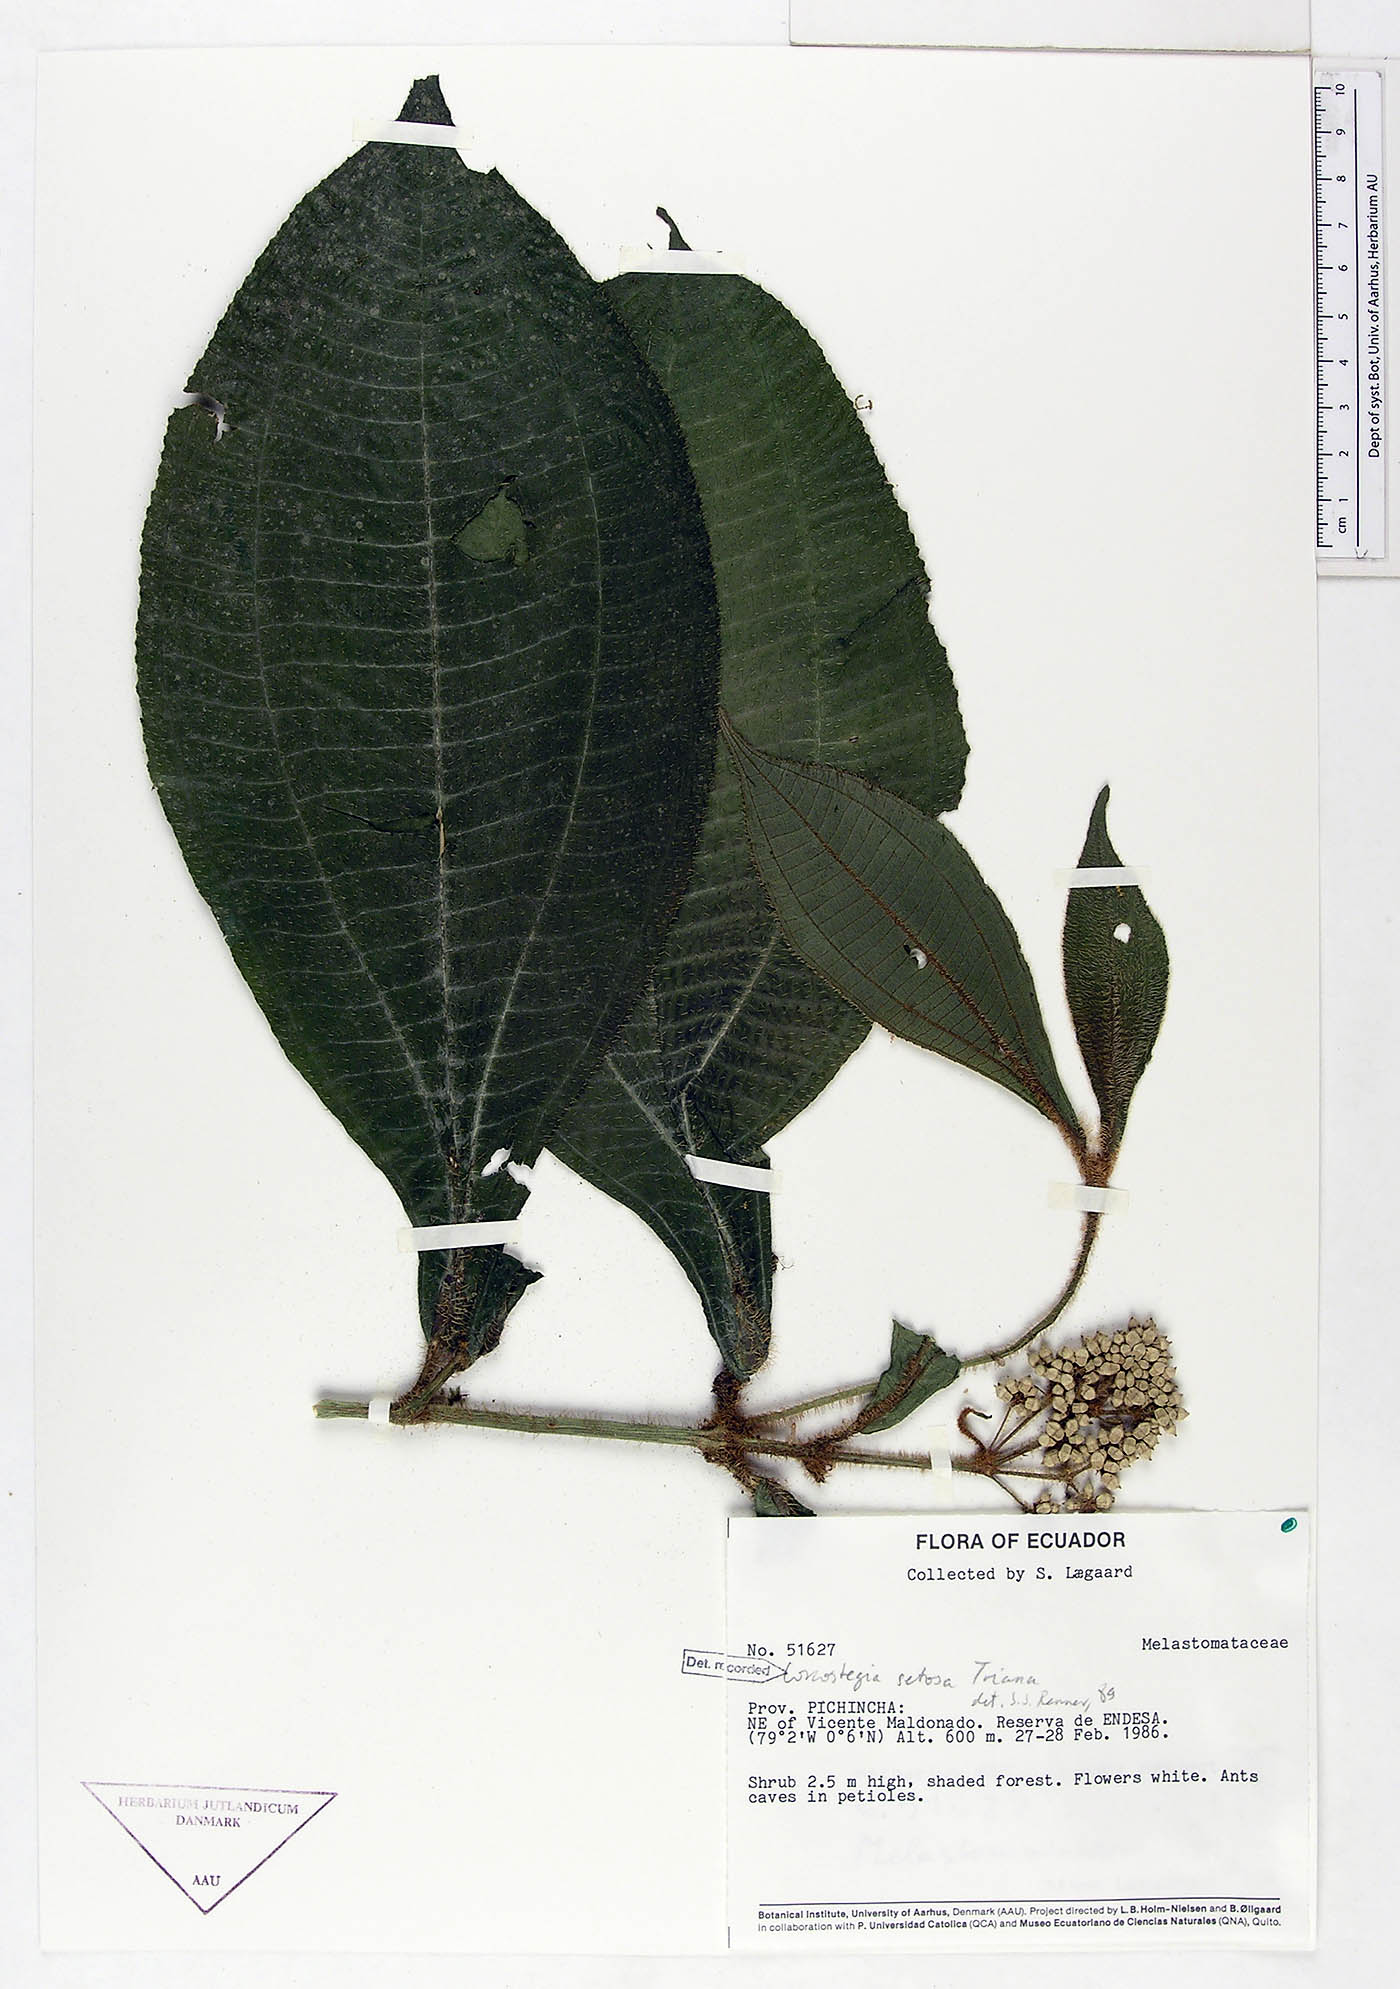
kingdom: Plantae
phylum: Tracheophyta
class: Magnoliopsida
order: Myrtales
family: Melastomataceae
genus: Miconia
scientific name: Miconia conosetosa
